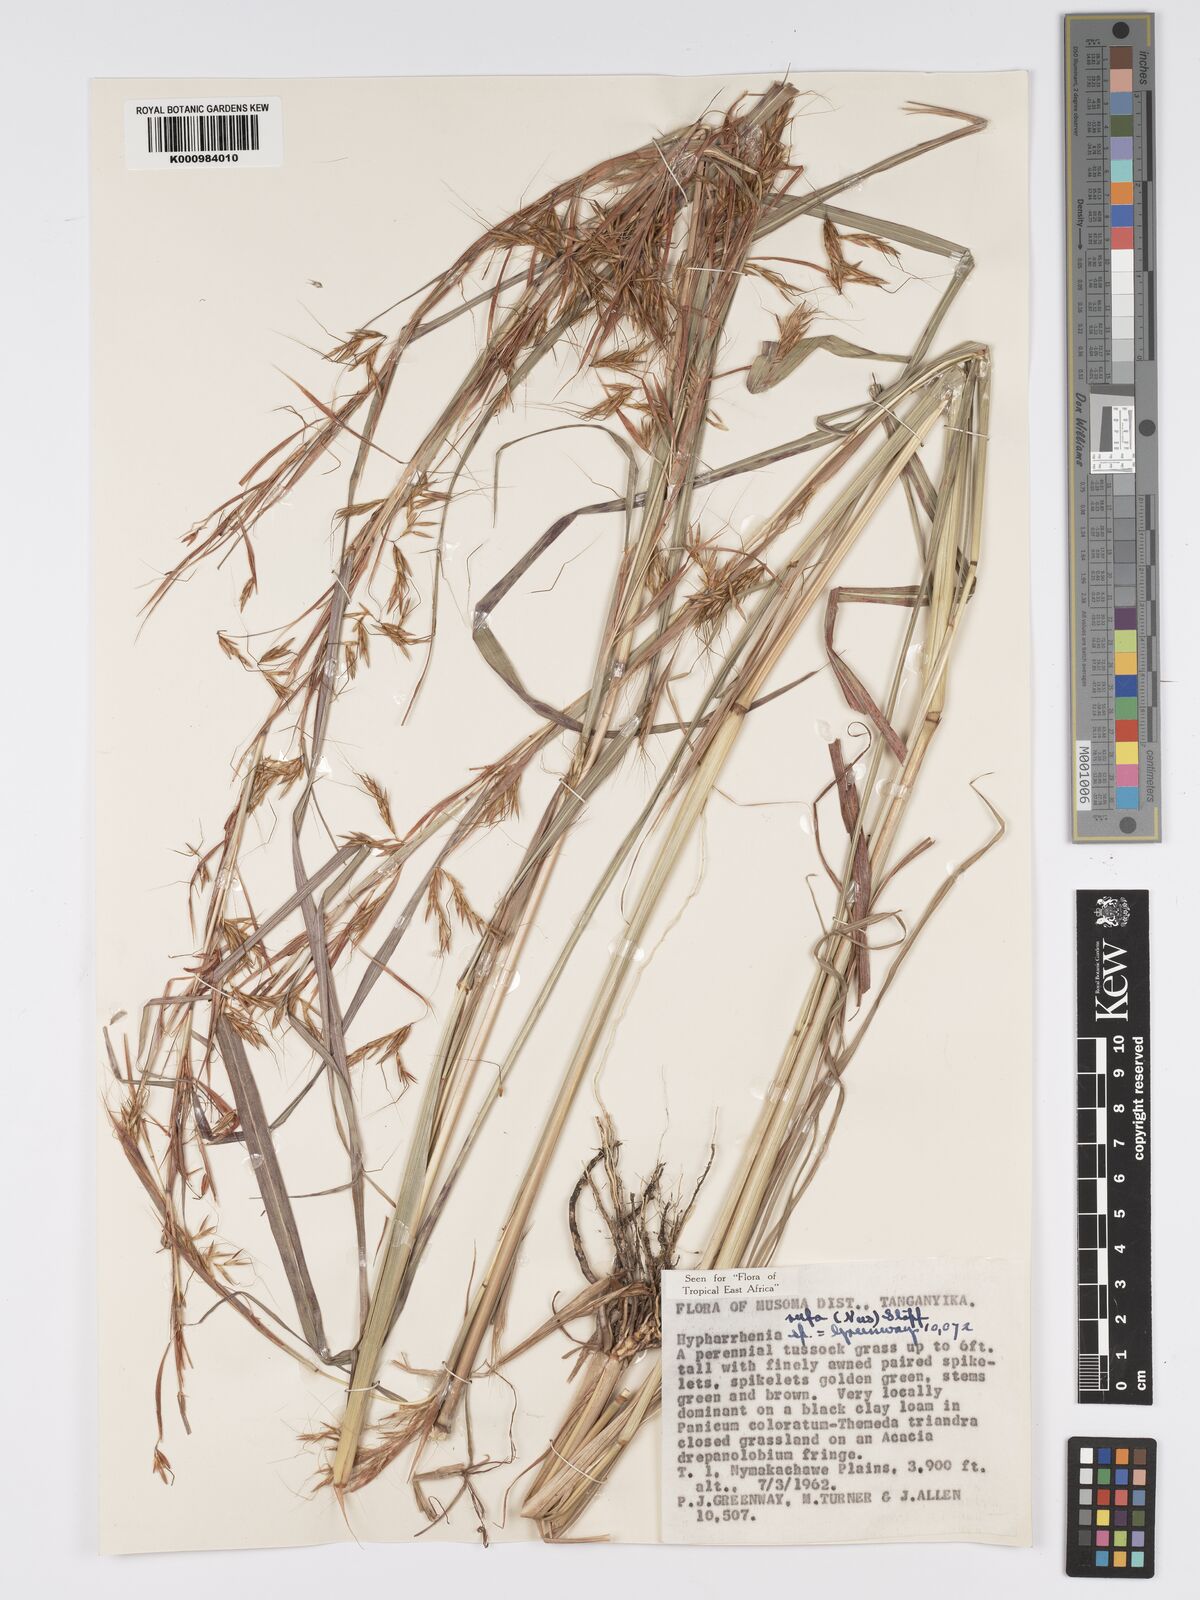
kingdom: Plantae
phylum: Tracheophyta
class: Liliopsida
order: Poales
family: Poaceae
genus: Hyparrhenia
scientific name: Hyparrhenia rufa
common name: Jaraguagrass
